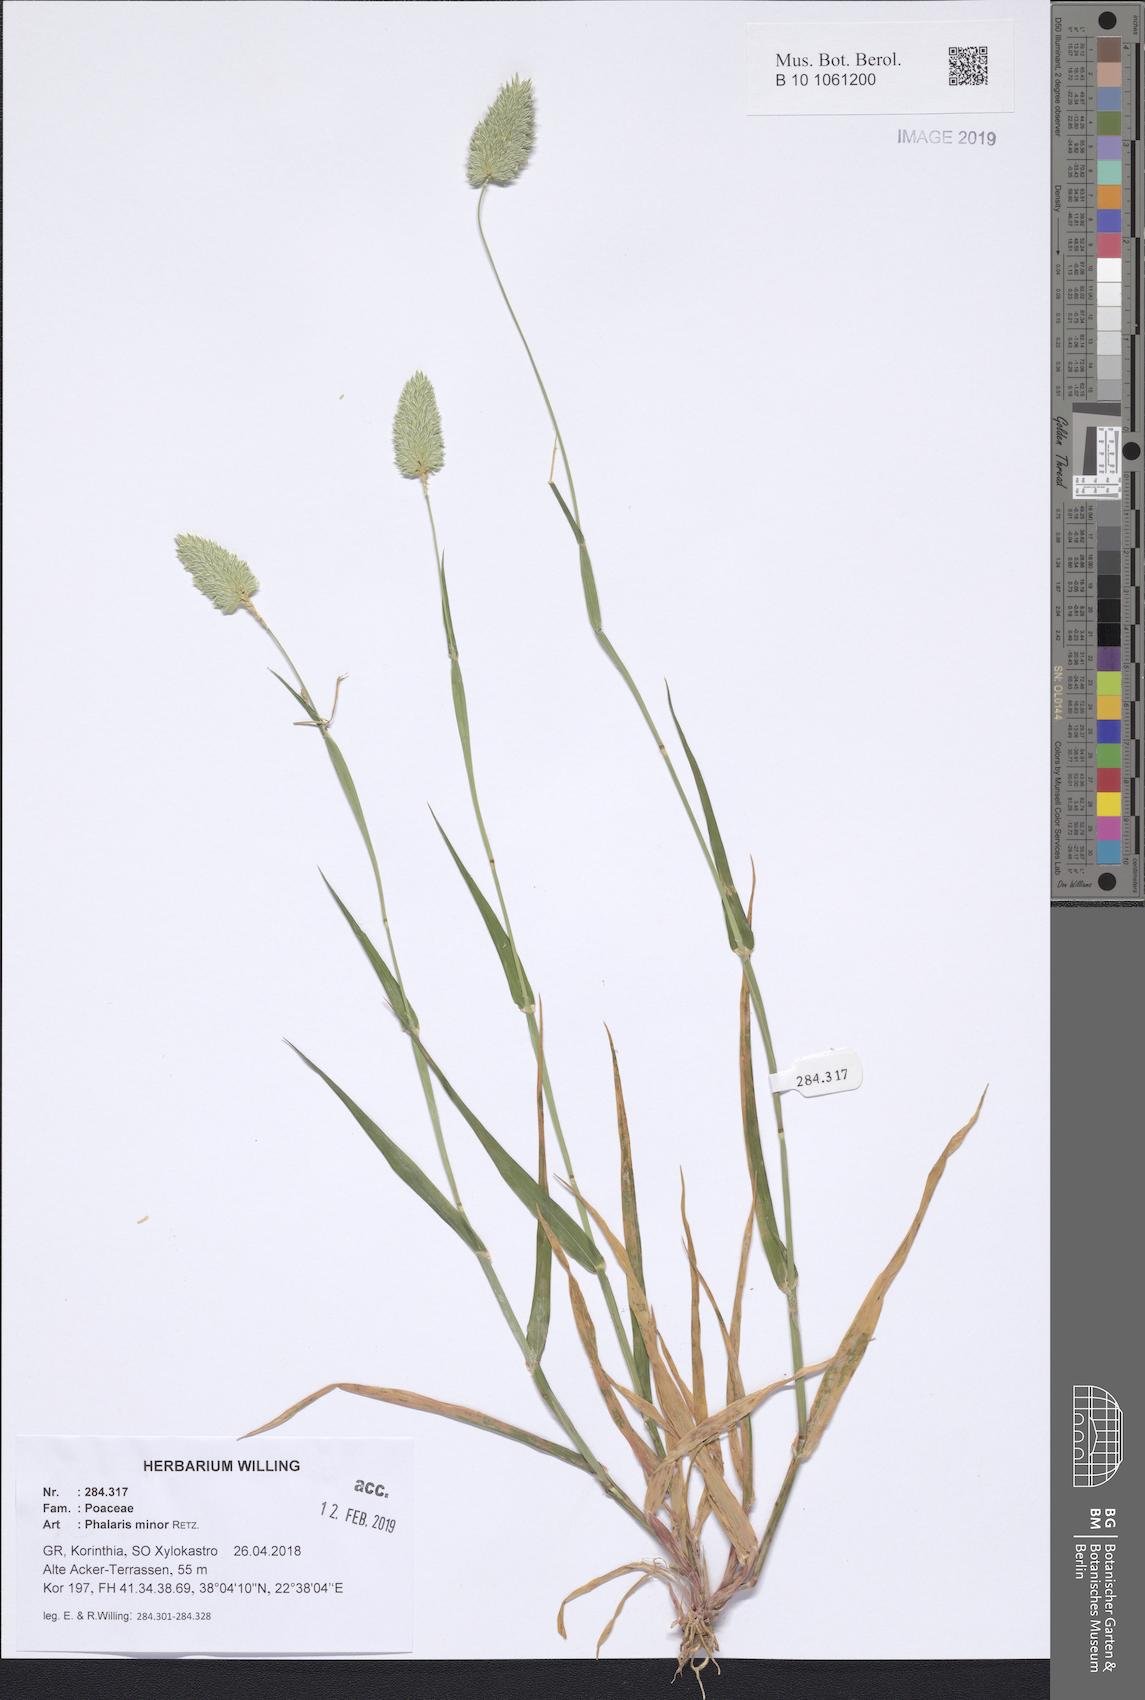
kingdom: Plantae
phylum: Tracheophyta
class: Liliopsida
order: Poales
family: Poaceae
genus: Phalaris
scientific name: Phalaris minor
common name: Littleseed canarygrass
